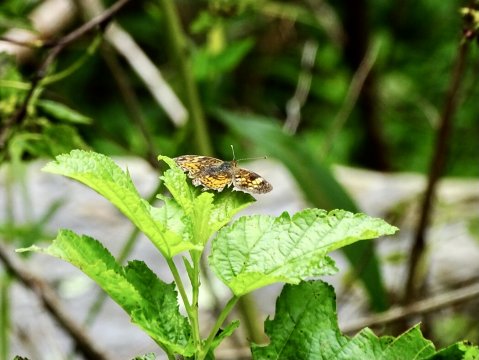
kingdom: Animalia
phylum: Arthropoda
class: Insecta
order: Lepidoptera
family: Nymphalidae
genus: Phyciodes
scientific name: Phyciodes tharos
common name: Pearl Crescent
